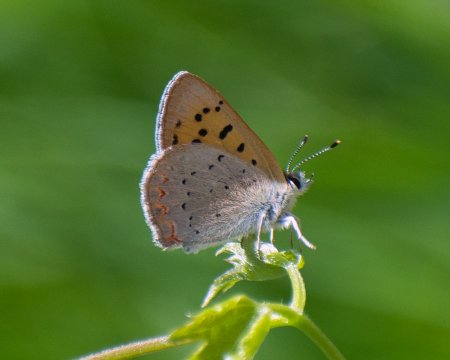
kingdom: Animalia
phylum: Arthropoda
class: Insecta
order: Lepidoptera
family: Sesiidae
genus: Sesia
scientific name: Sesia Lycaena helloides
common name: Purplish Copper
